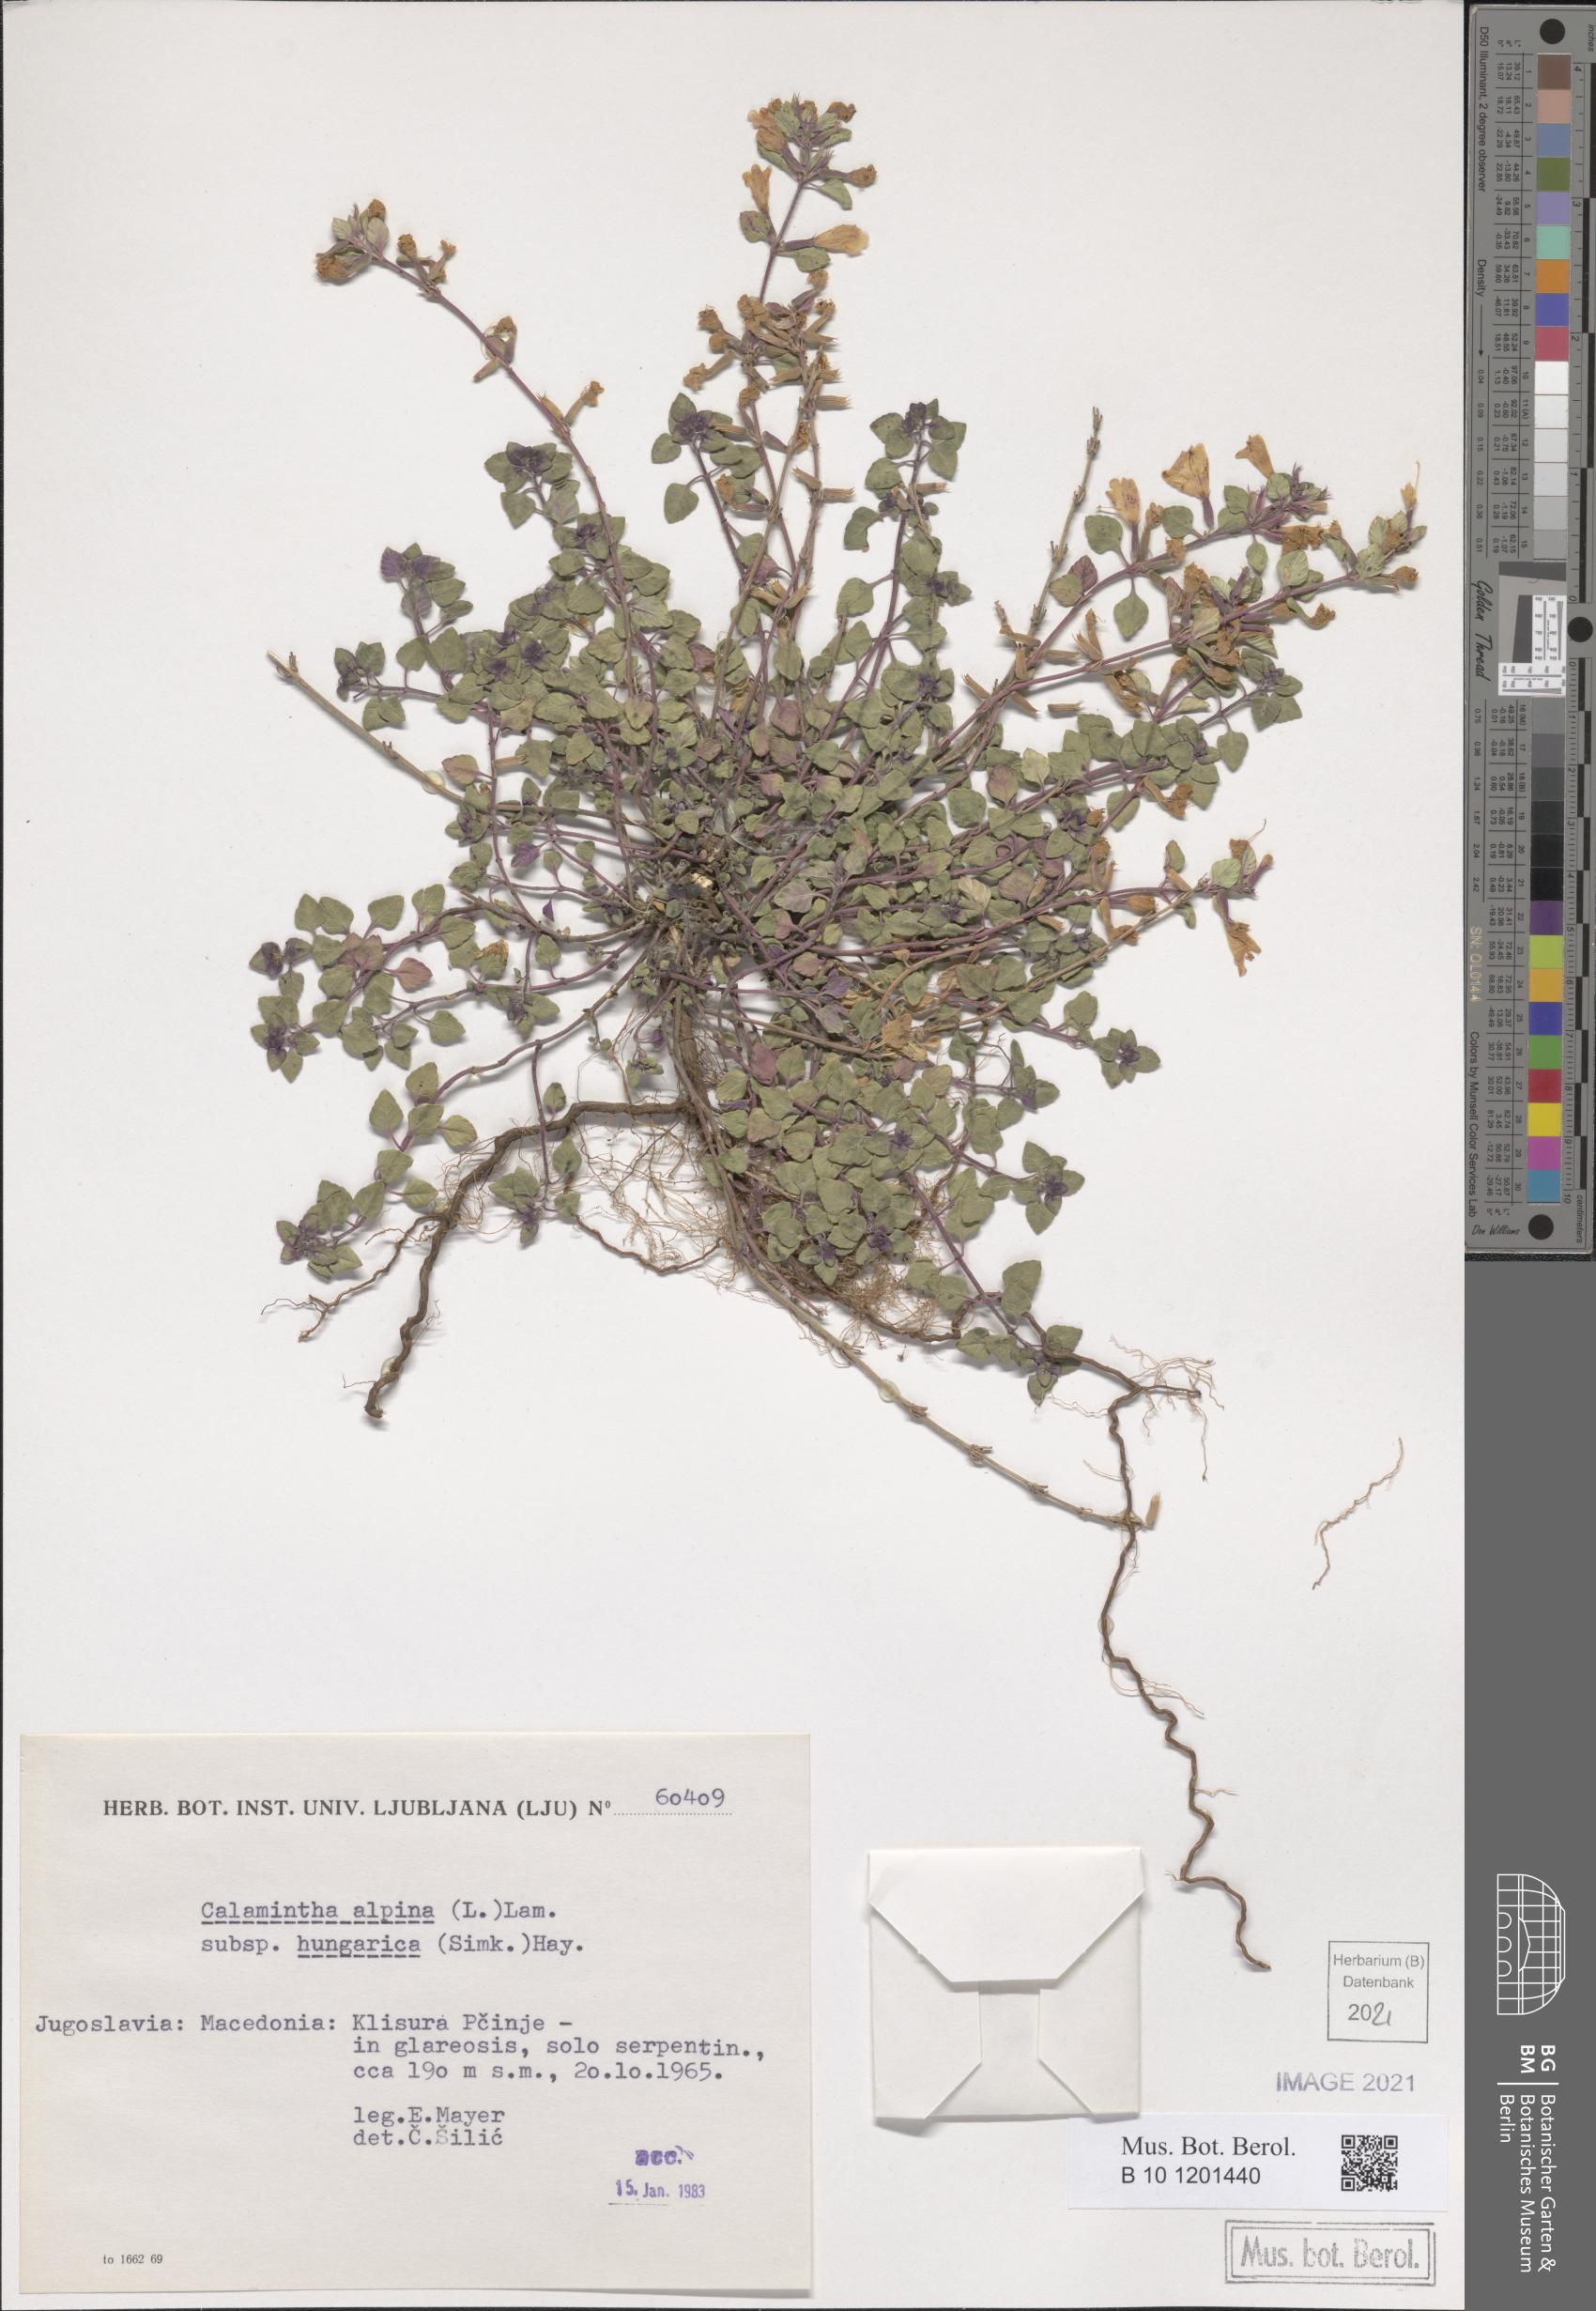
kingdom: Plantae
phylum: Tracheophyta
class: Magnoliopsida
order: Lamiales
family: Lamiaceae
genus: Clinopodium
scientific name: Clinopodium alpinum
